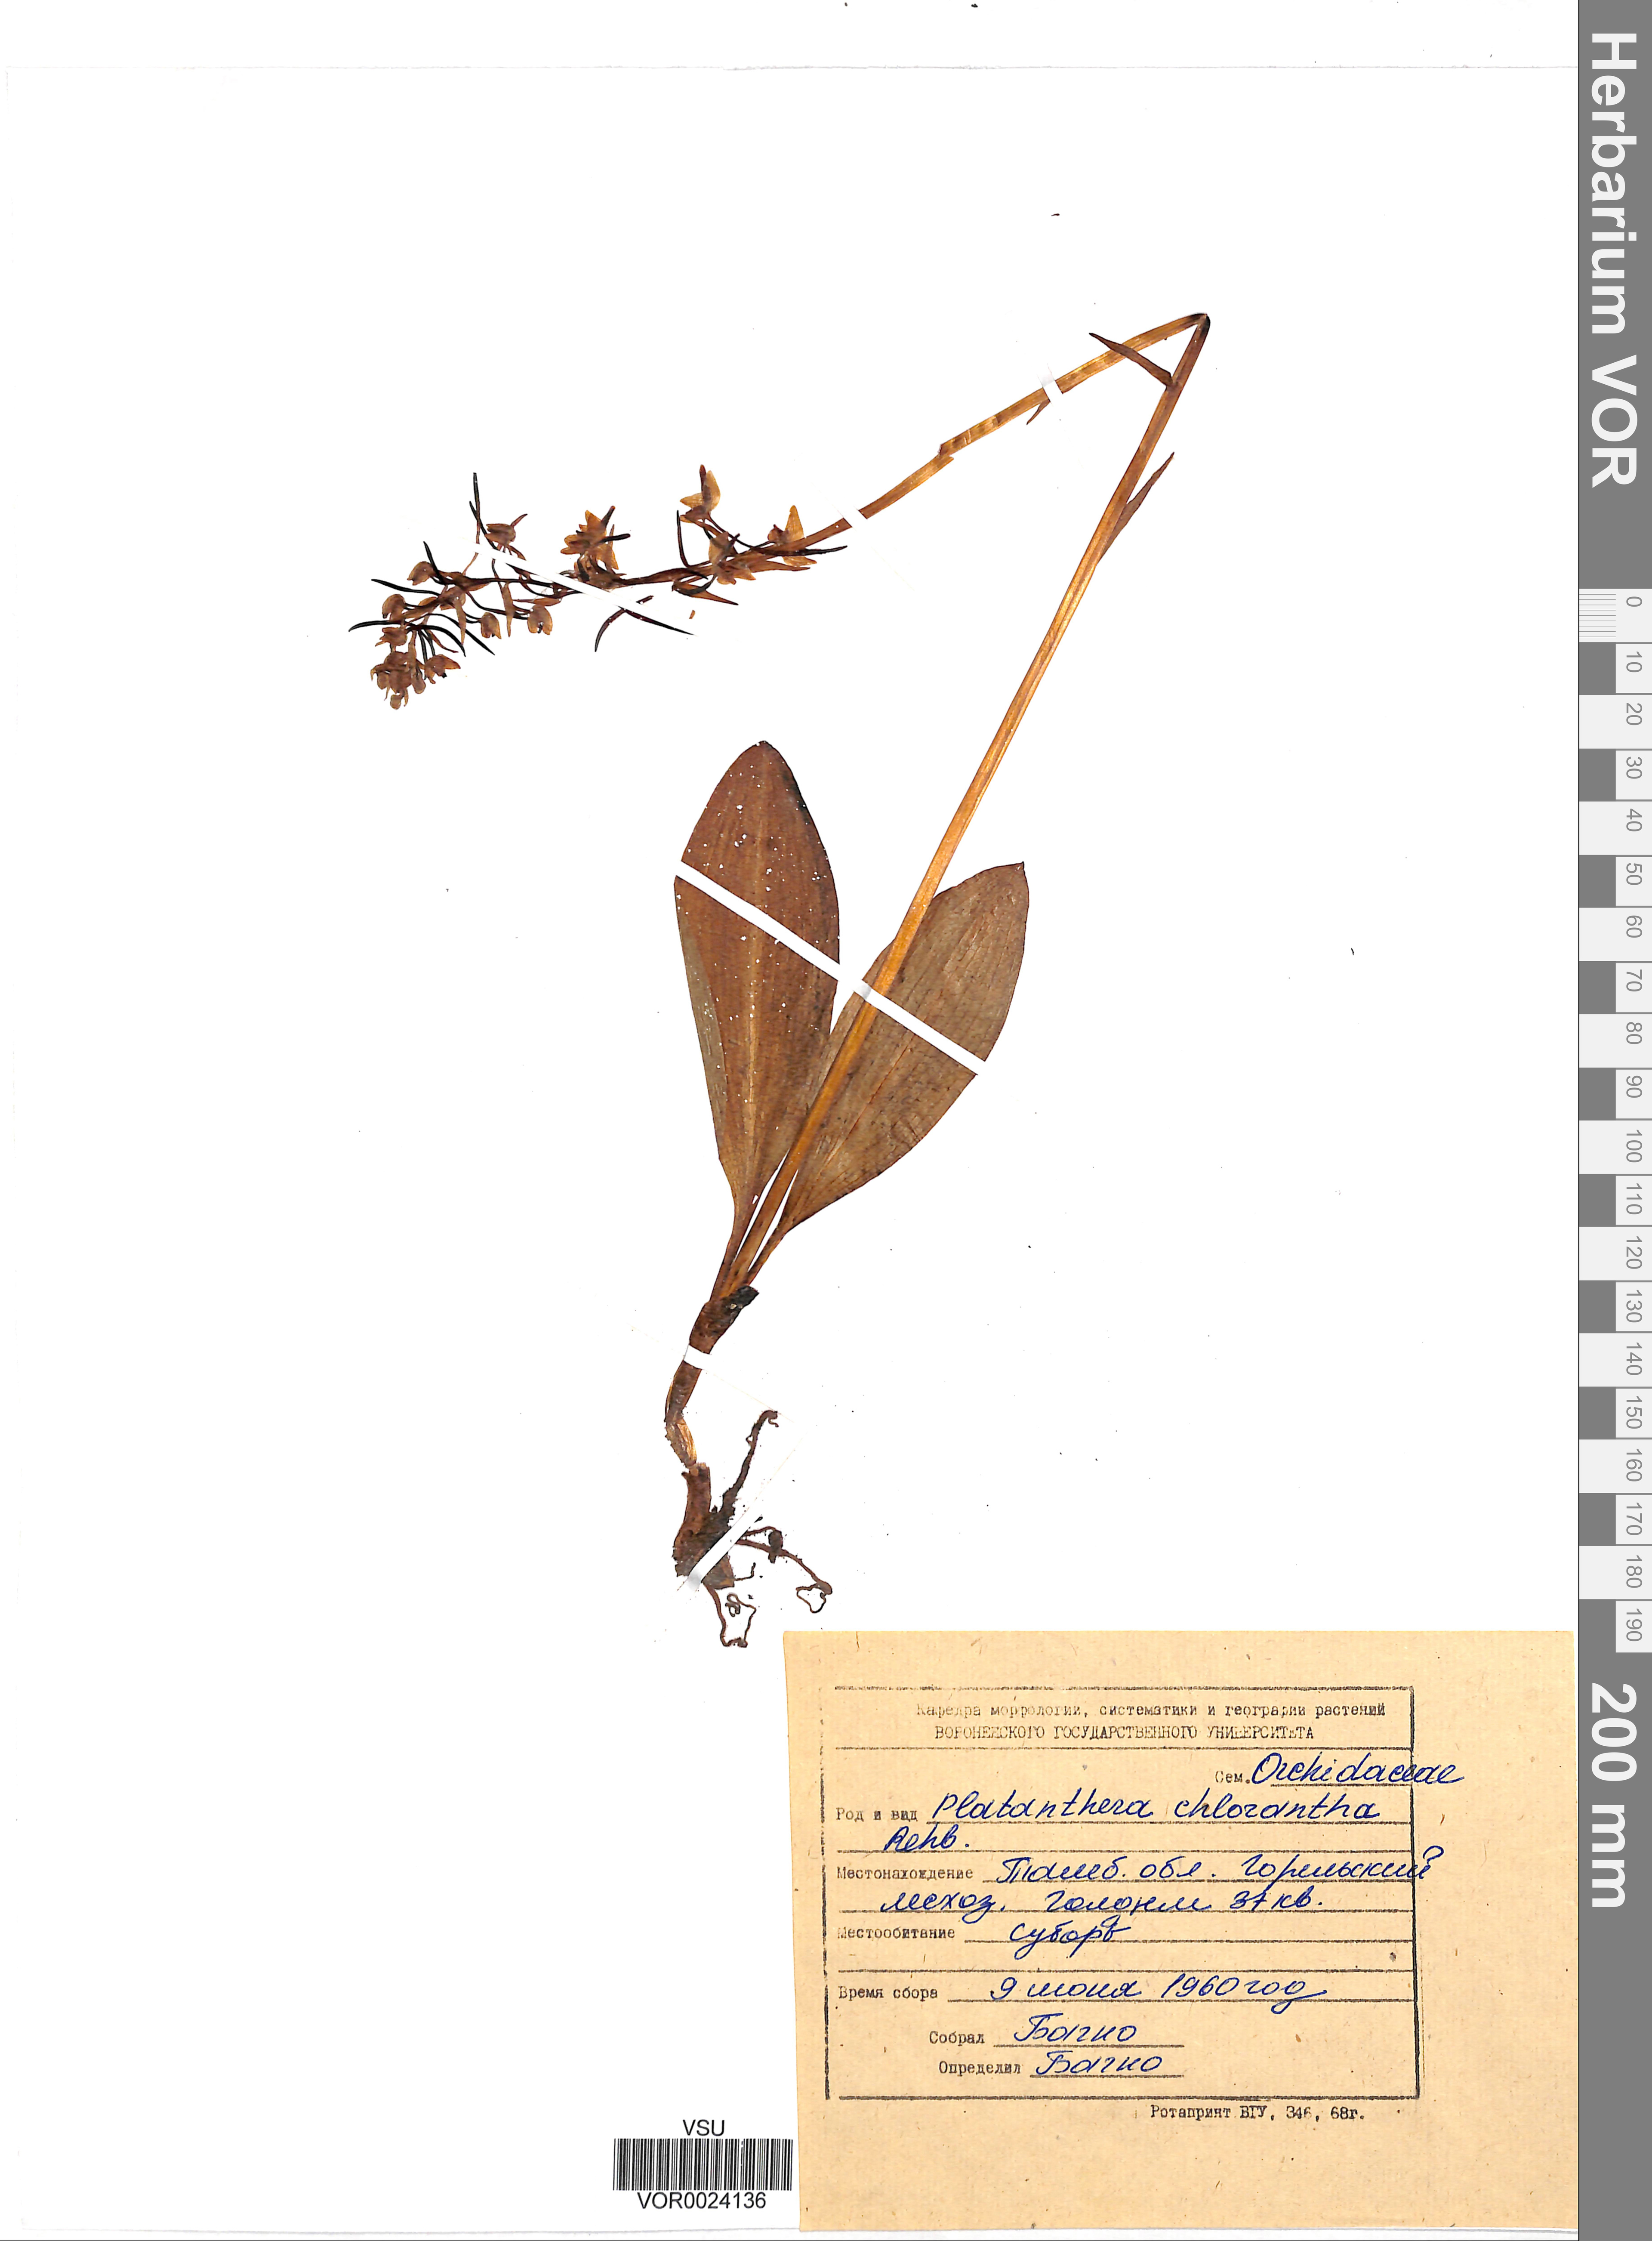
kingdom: Plantae
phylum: Tracheophyta
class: Liliopsida
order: Asparagales
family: Orchidaceae
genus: Platanthera
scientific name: Platanthera chlorantha
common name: Greater butterfly-orchid
